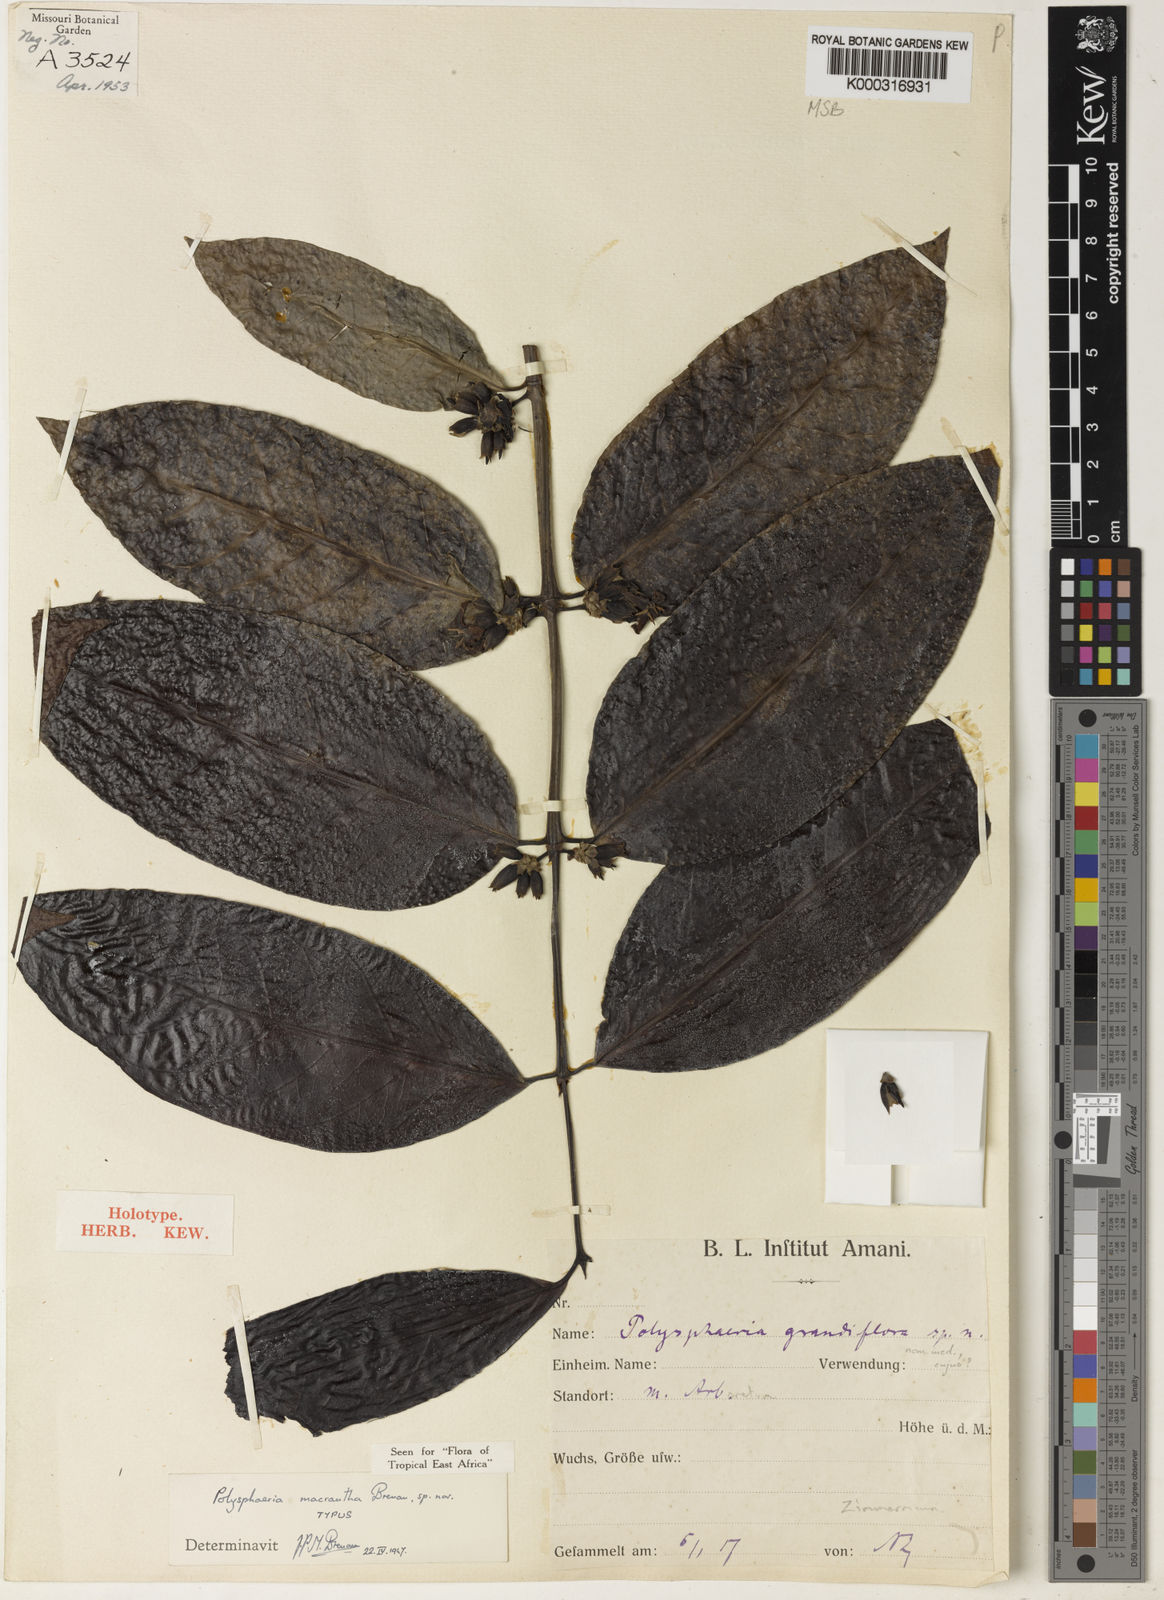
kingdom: Plantae
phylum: Tracheophyta
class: Magnoliopsida
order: Gentianales
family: Rubiaceae
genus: Polysphaeria
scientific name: Polysphaeria macrantha
